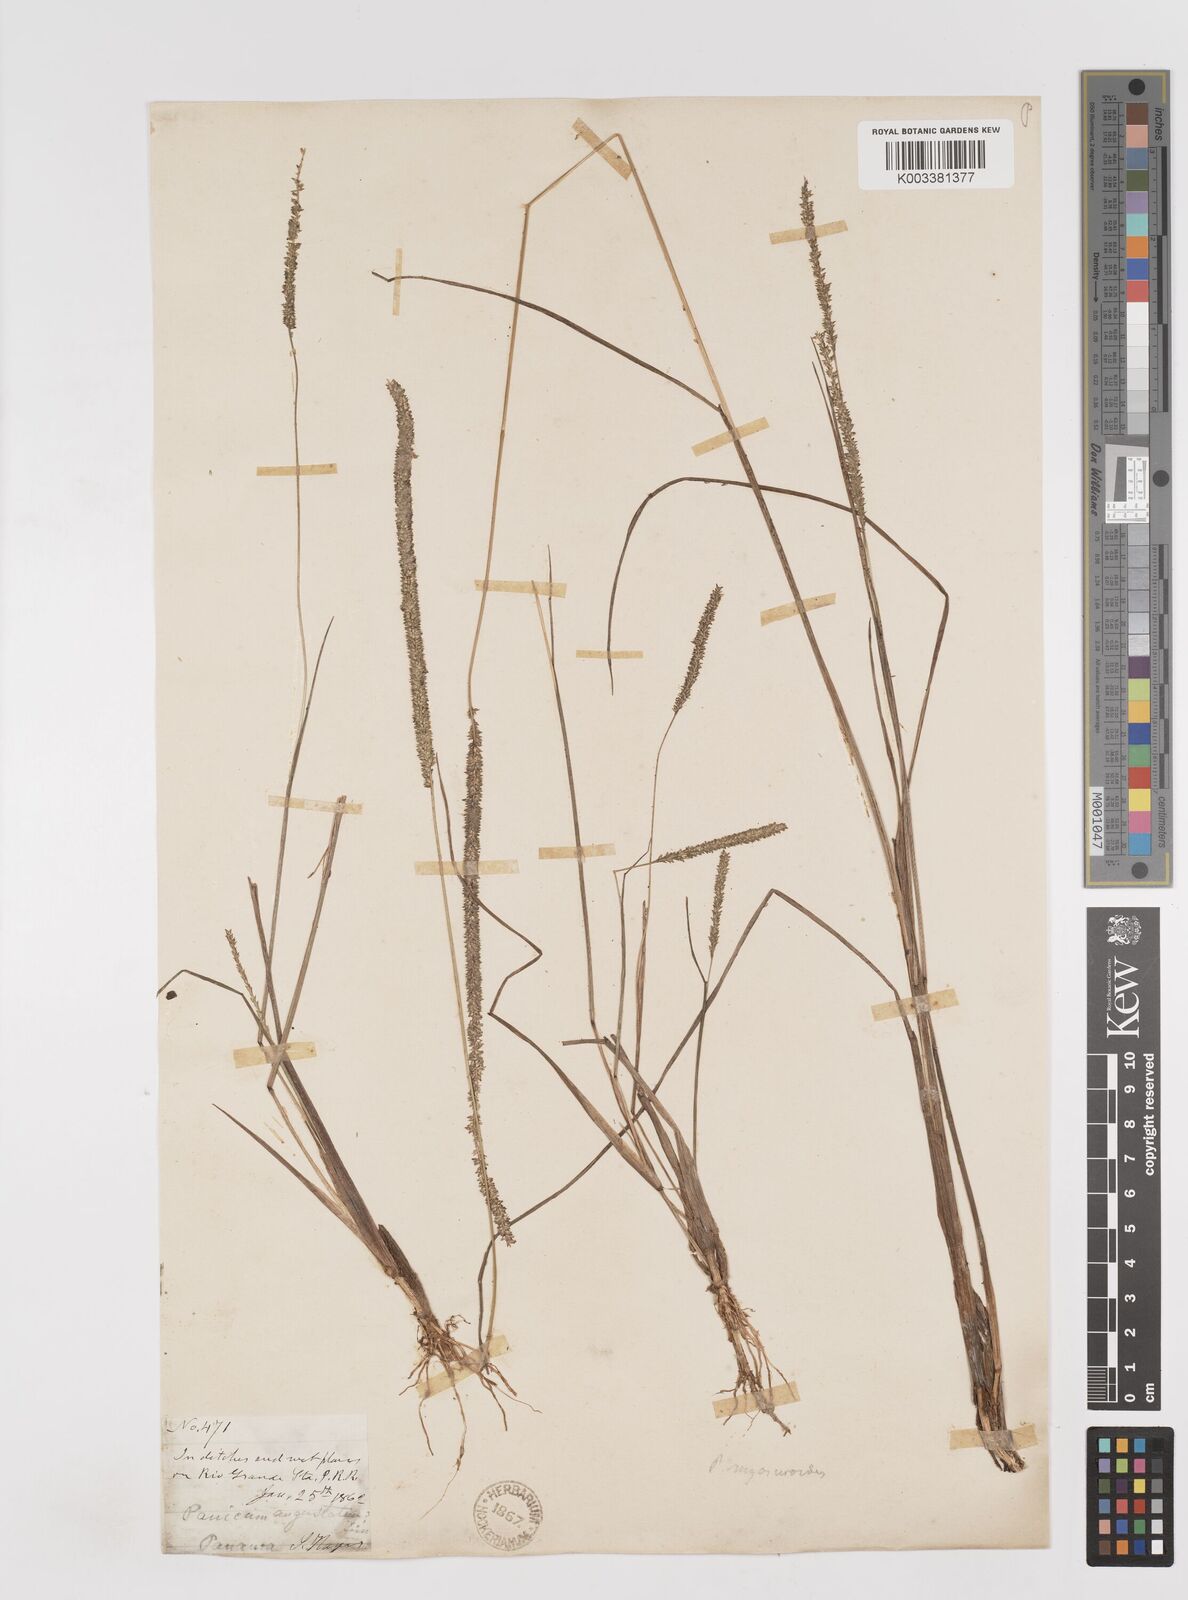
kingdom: Plantae
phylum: Tracheophyta
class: Liliopsida
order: Poales
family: Poaceae
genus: Sacciolepis
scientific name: Sacciolepis myuros
